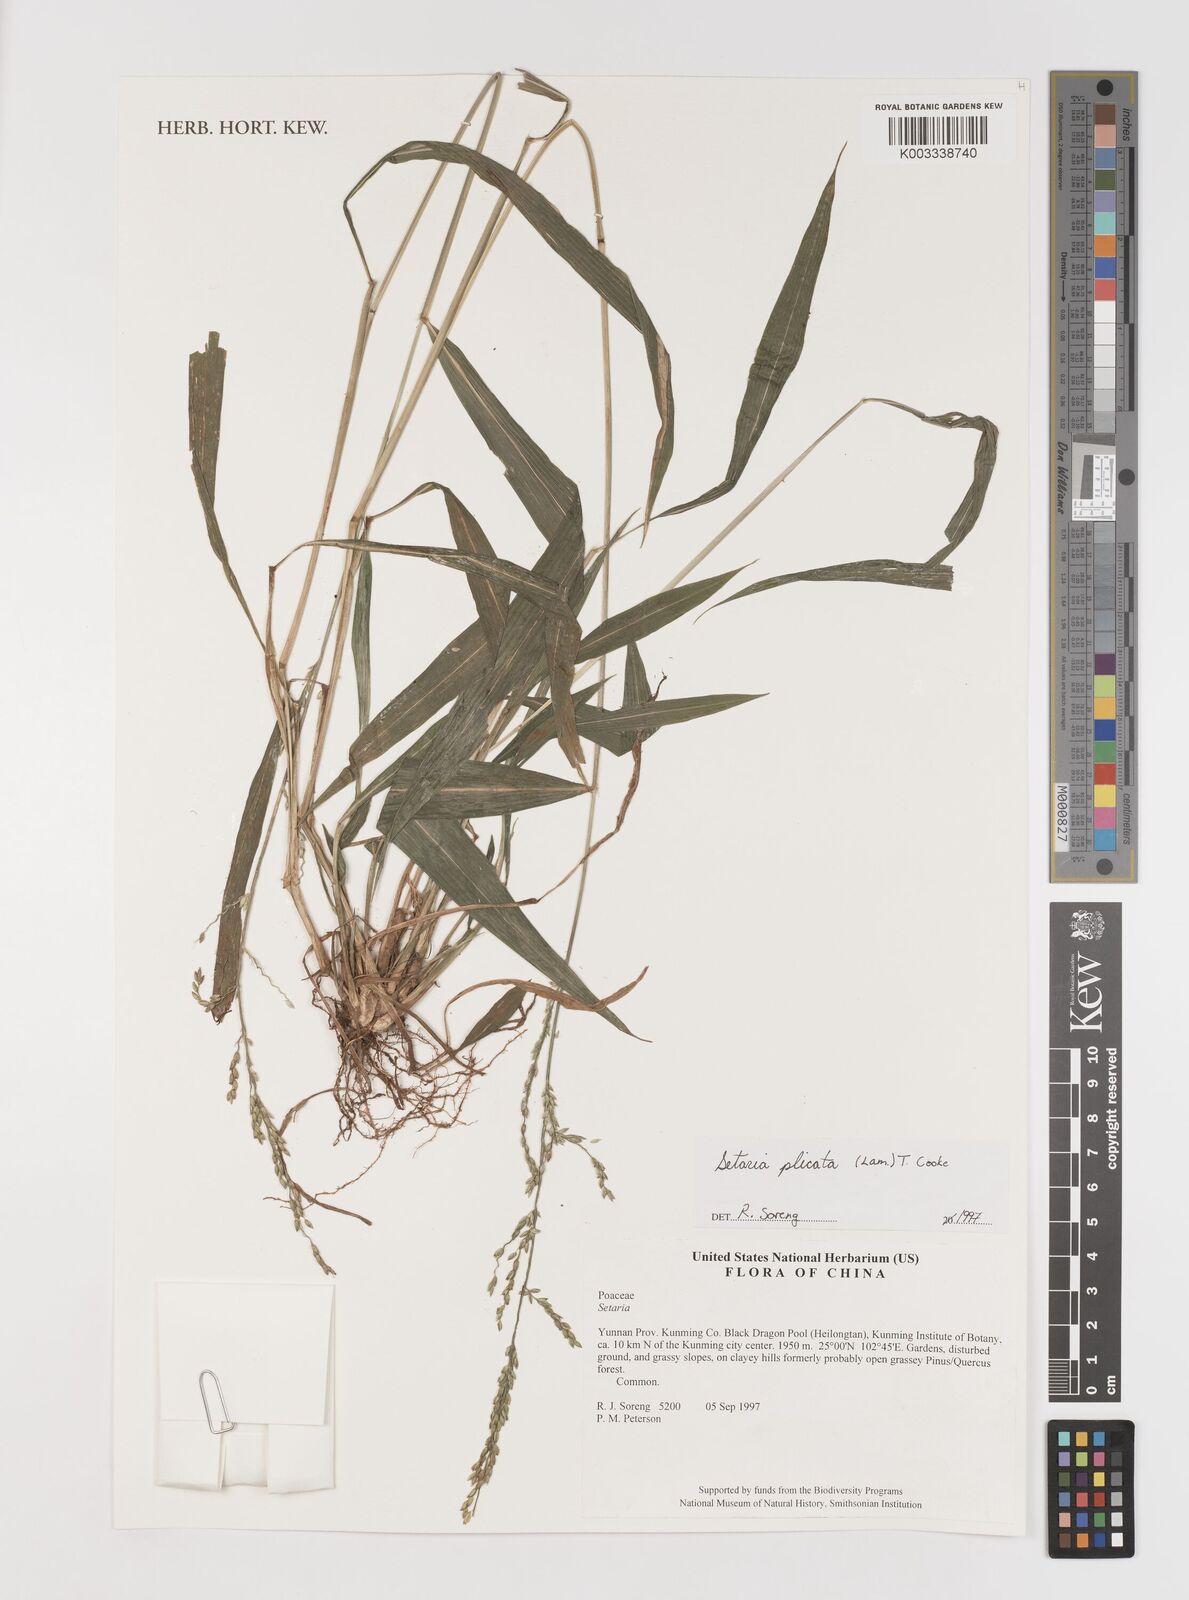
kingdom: Plantae
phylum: Tracheophyta
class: Liliopsida
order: Poales
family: Poaceae
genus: Setaria
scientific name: Setaria plicata
